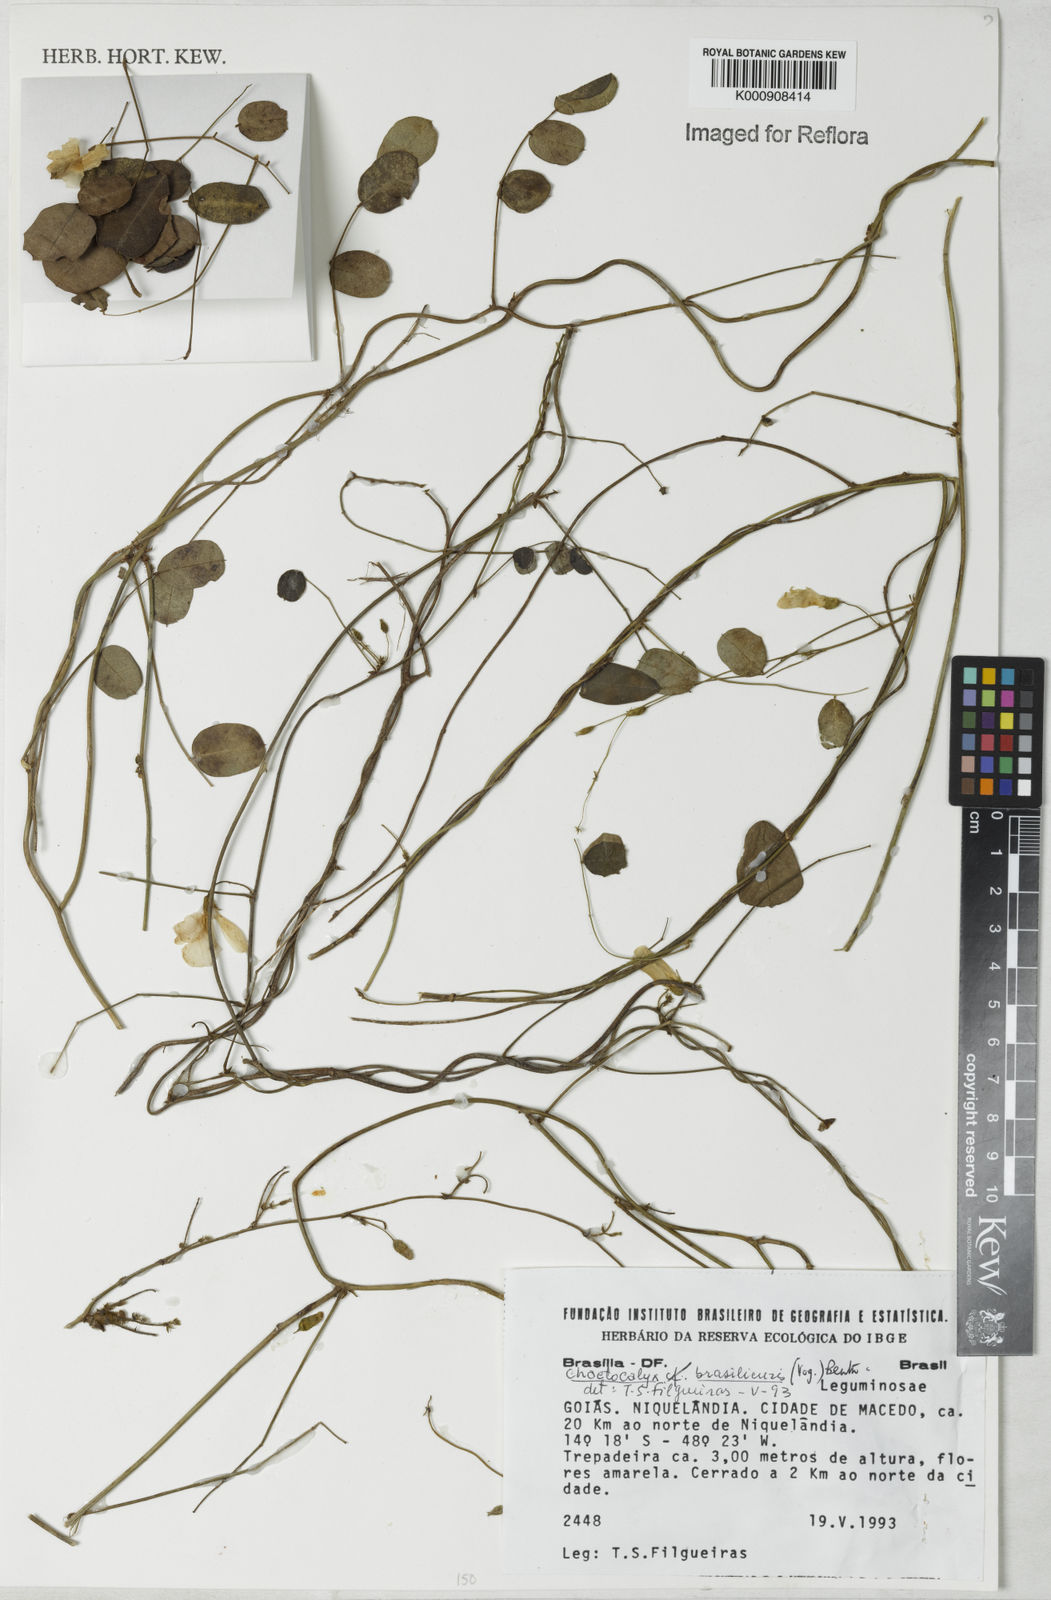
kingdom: Plantae
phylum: Tracheophyta
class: Magnoliopsida
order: Fabales
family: Fabaceae
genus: Nissolia
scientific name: Nissolia brasiliensis
